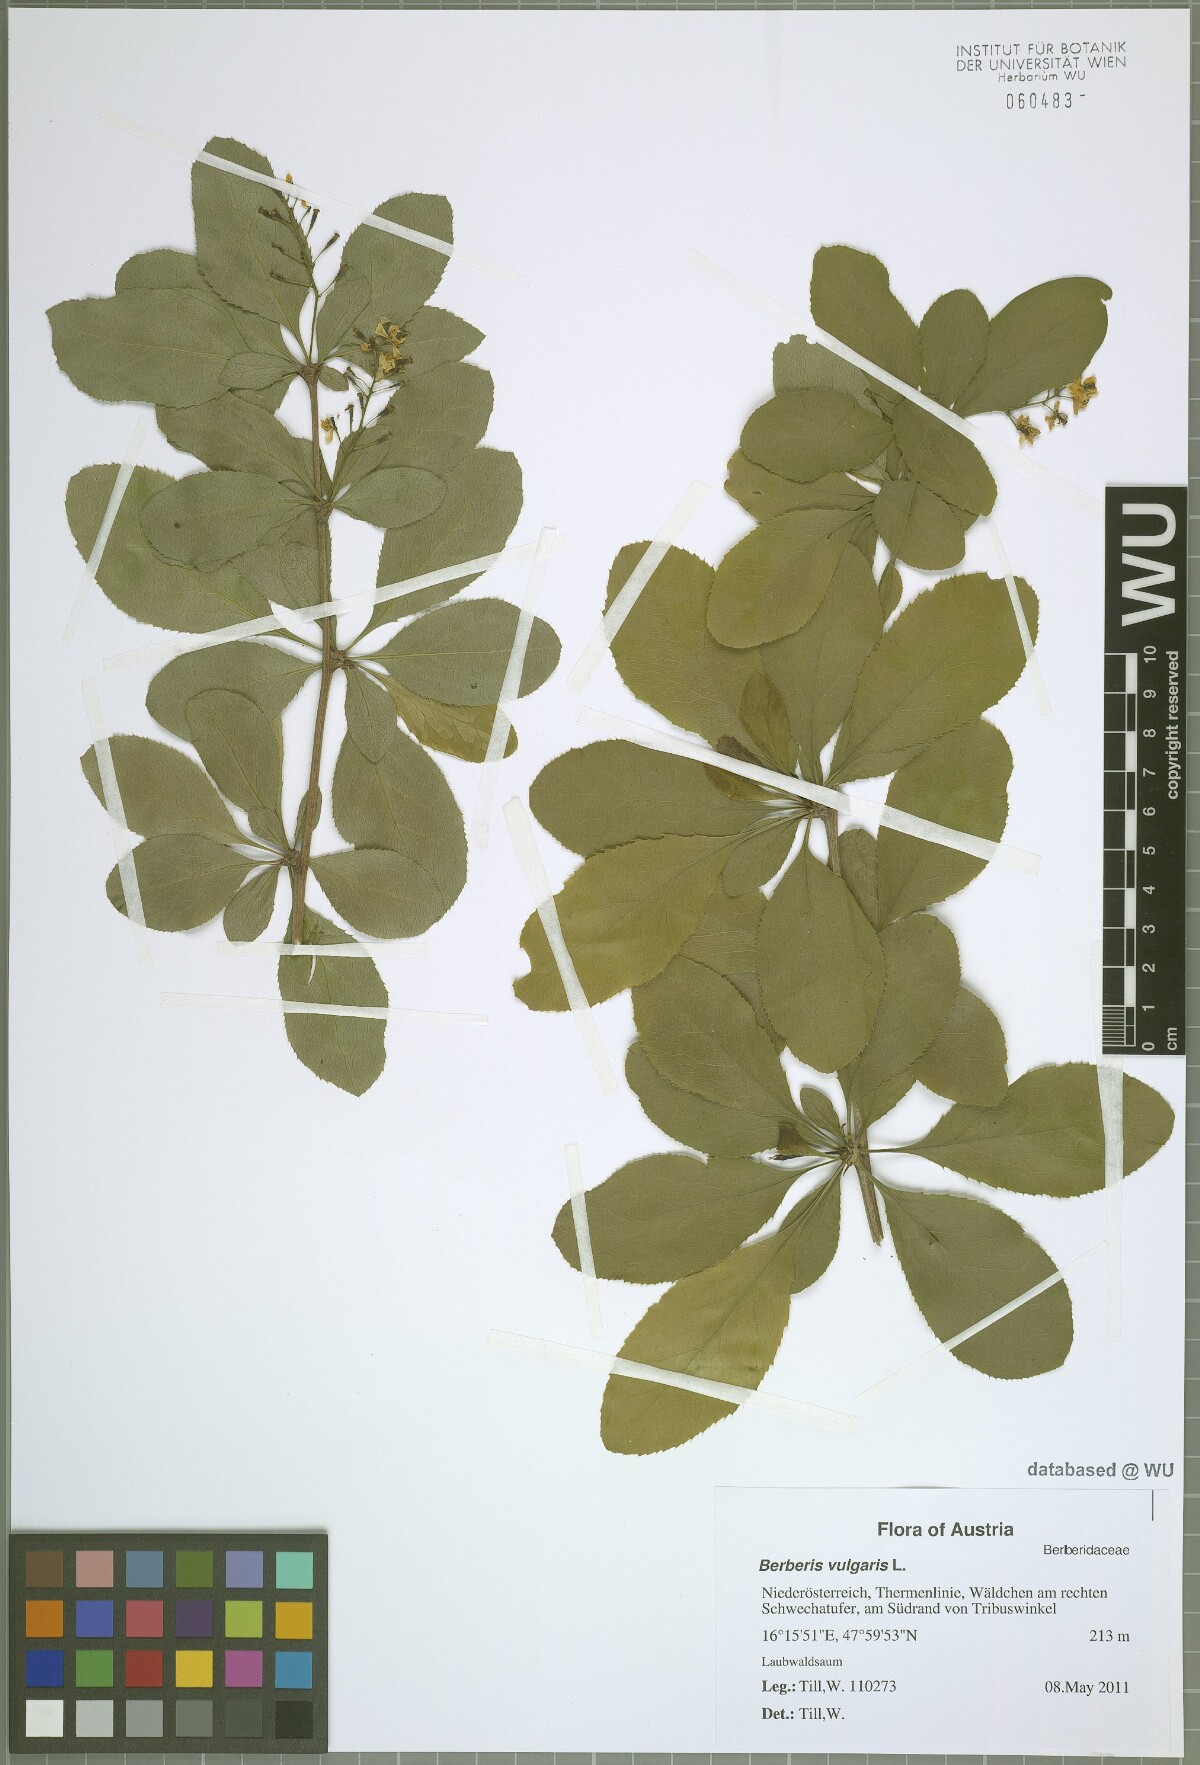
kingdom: Plantae
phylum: Tracheophyta
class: Magnoliopsida
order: Ranunculales
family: Berberidaceae
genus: Berberis
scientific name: Berberis vulgaris
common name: Barberry
